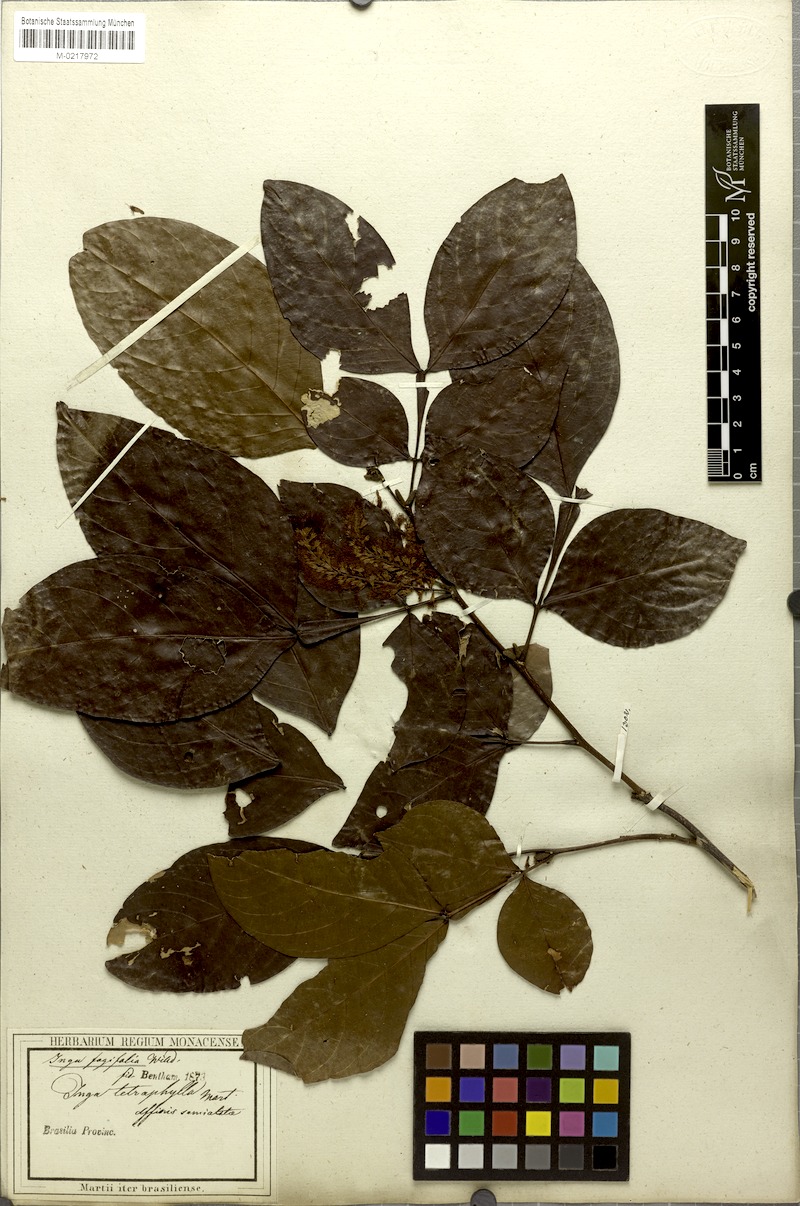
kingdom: Plantae
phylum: Tracheophyta
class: Magnoliopsida
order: Fabales
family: Fabaceae
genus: Inga
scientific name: Inga laurina
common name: Red wood
